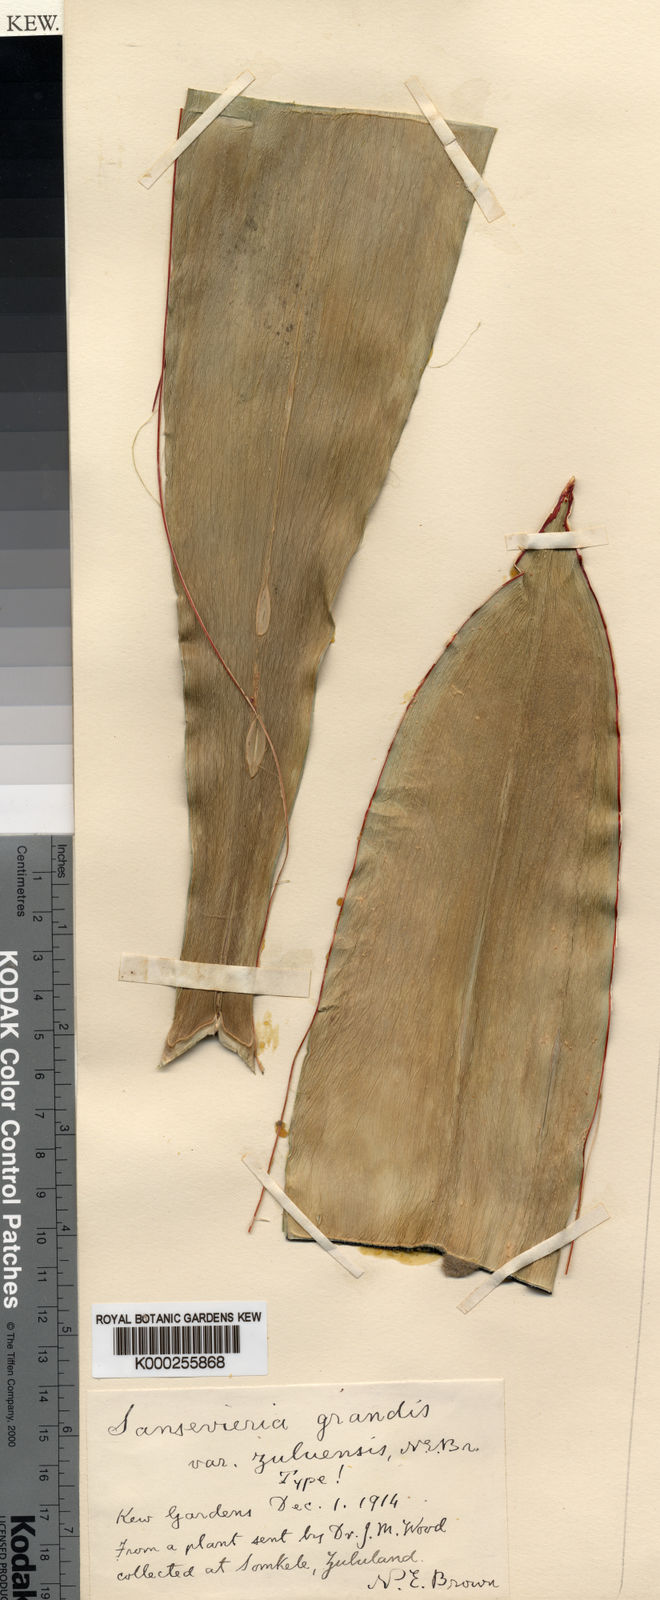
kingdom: Plantae
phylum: Tracheophyta
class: Liliopsida
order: Asparagales
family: Asparagaceae
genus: Dracaena
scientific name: Dracaena hyacinthoides
